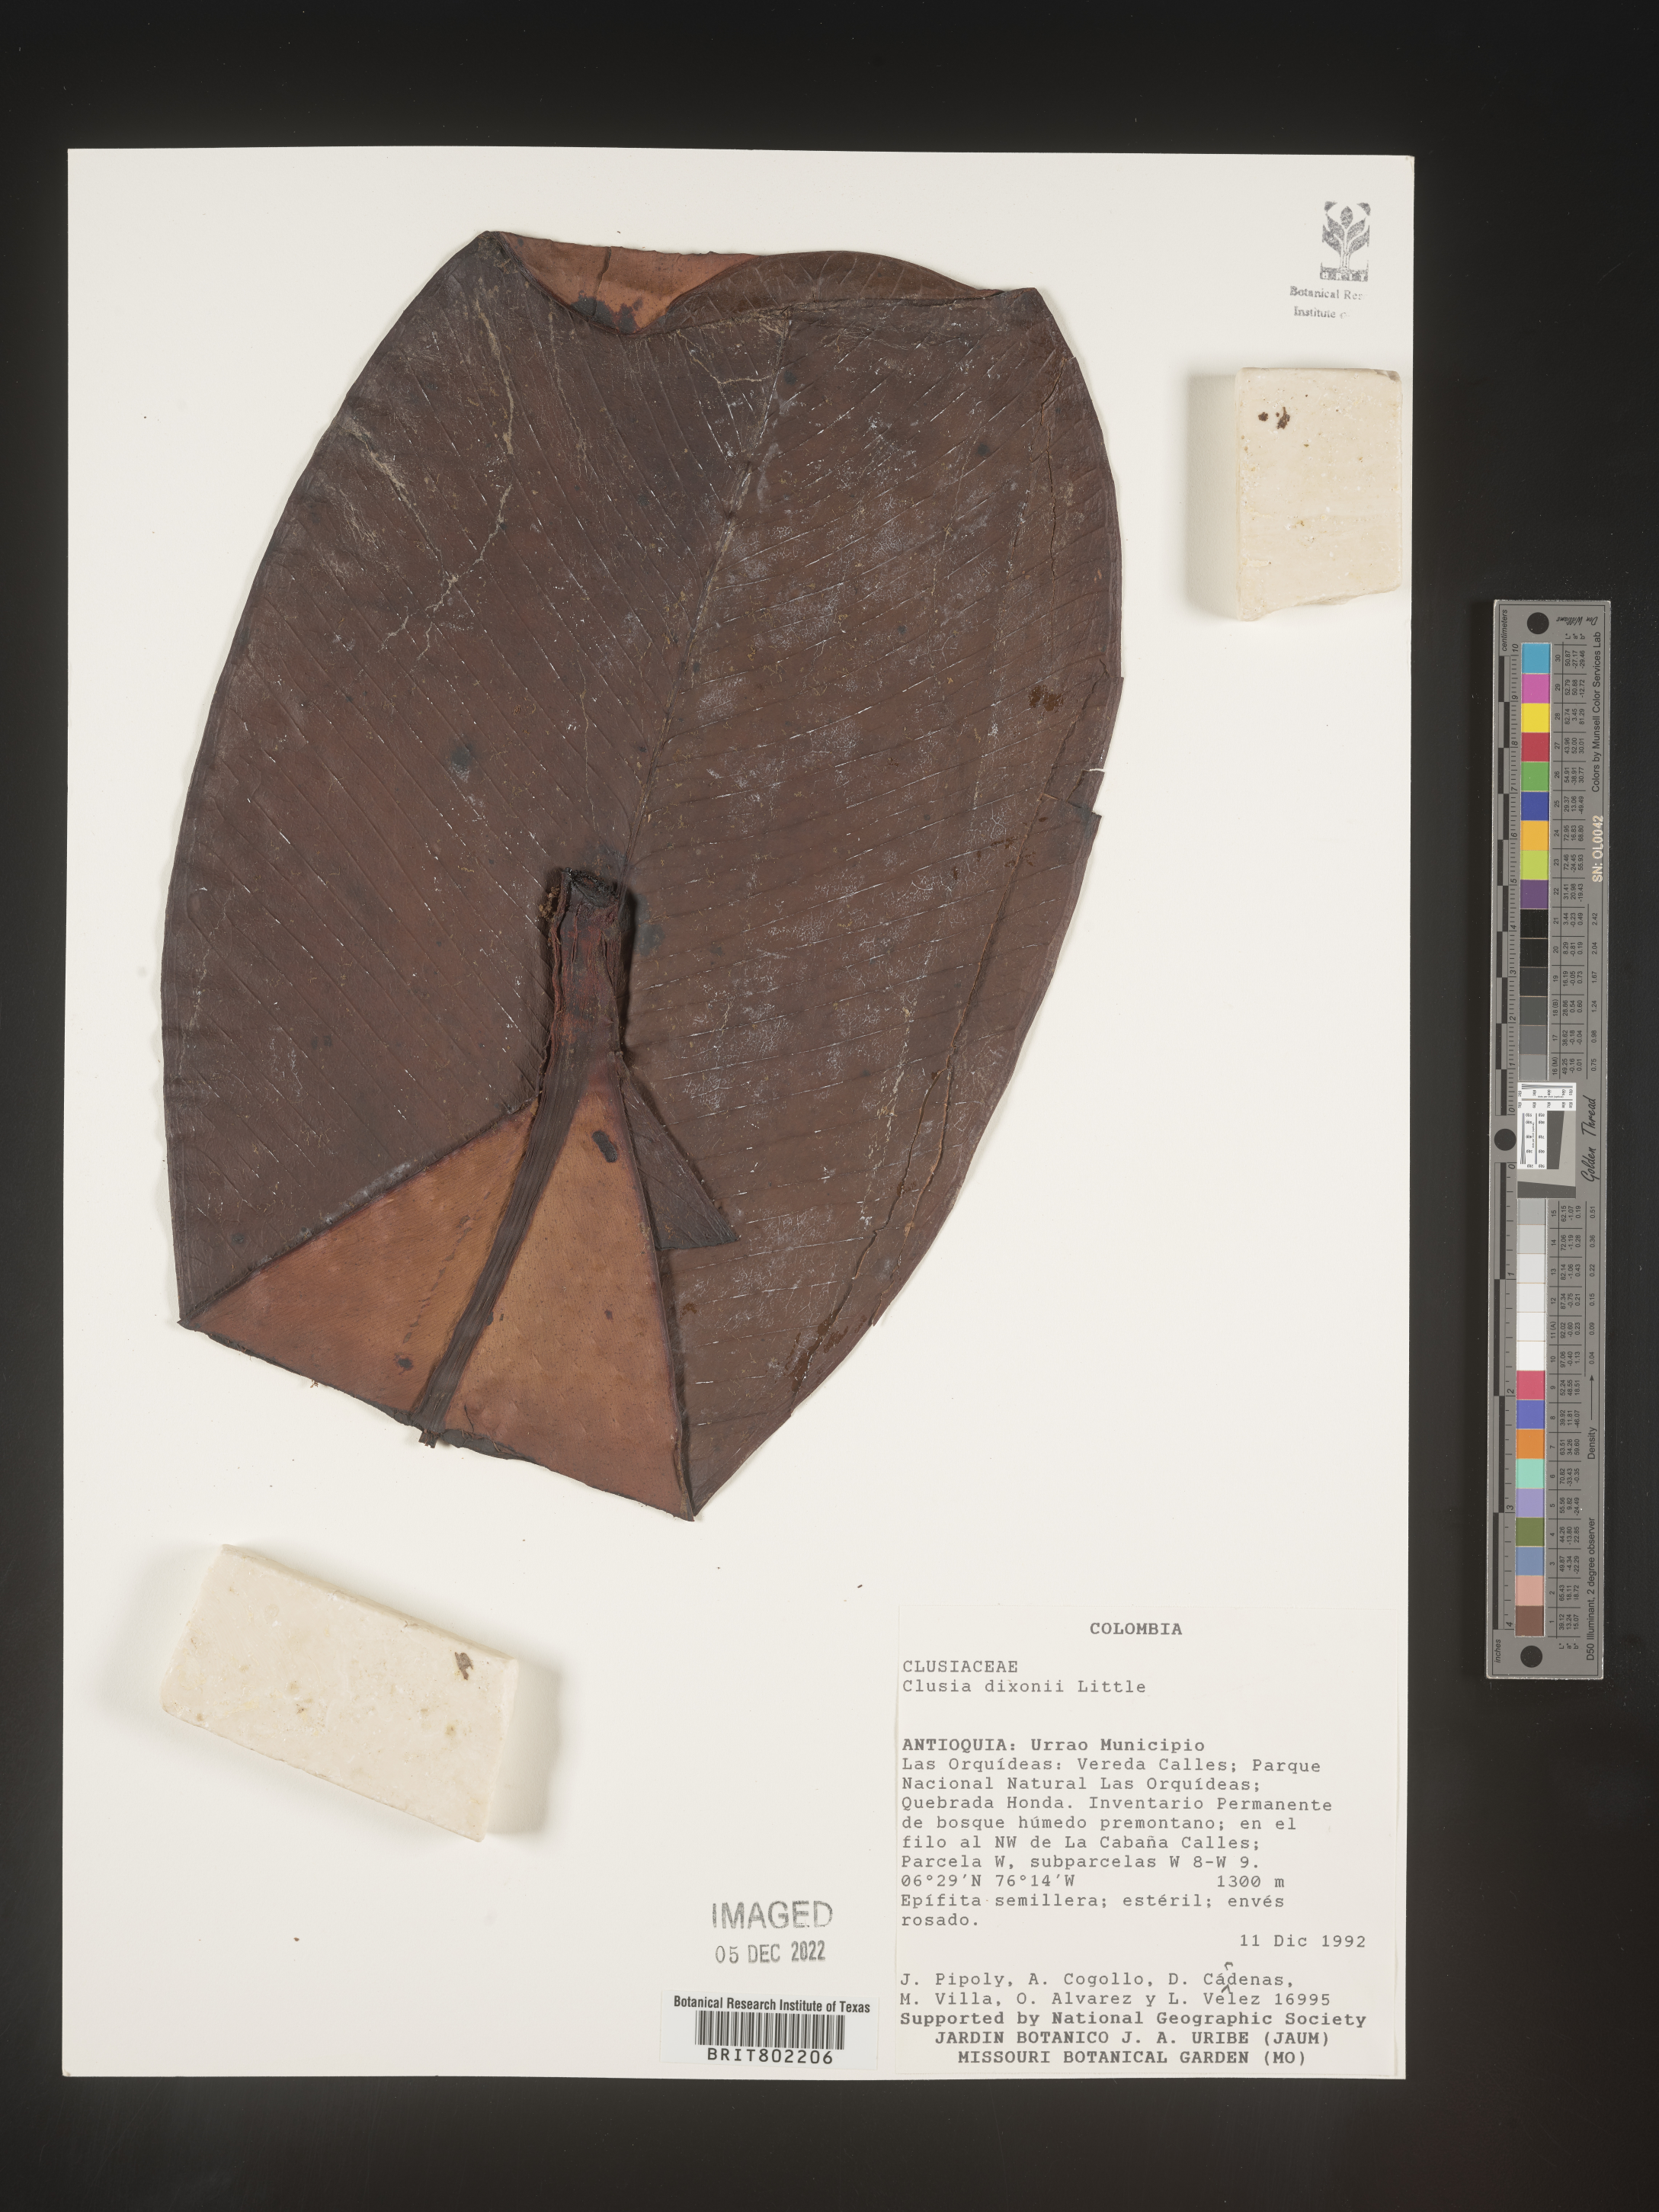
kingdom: Plantae
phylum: Tracheophyta
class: Magnoliopsida
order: Malpighiales
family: Clusiaceae
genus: Clusia
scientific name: Clusia
